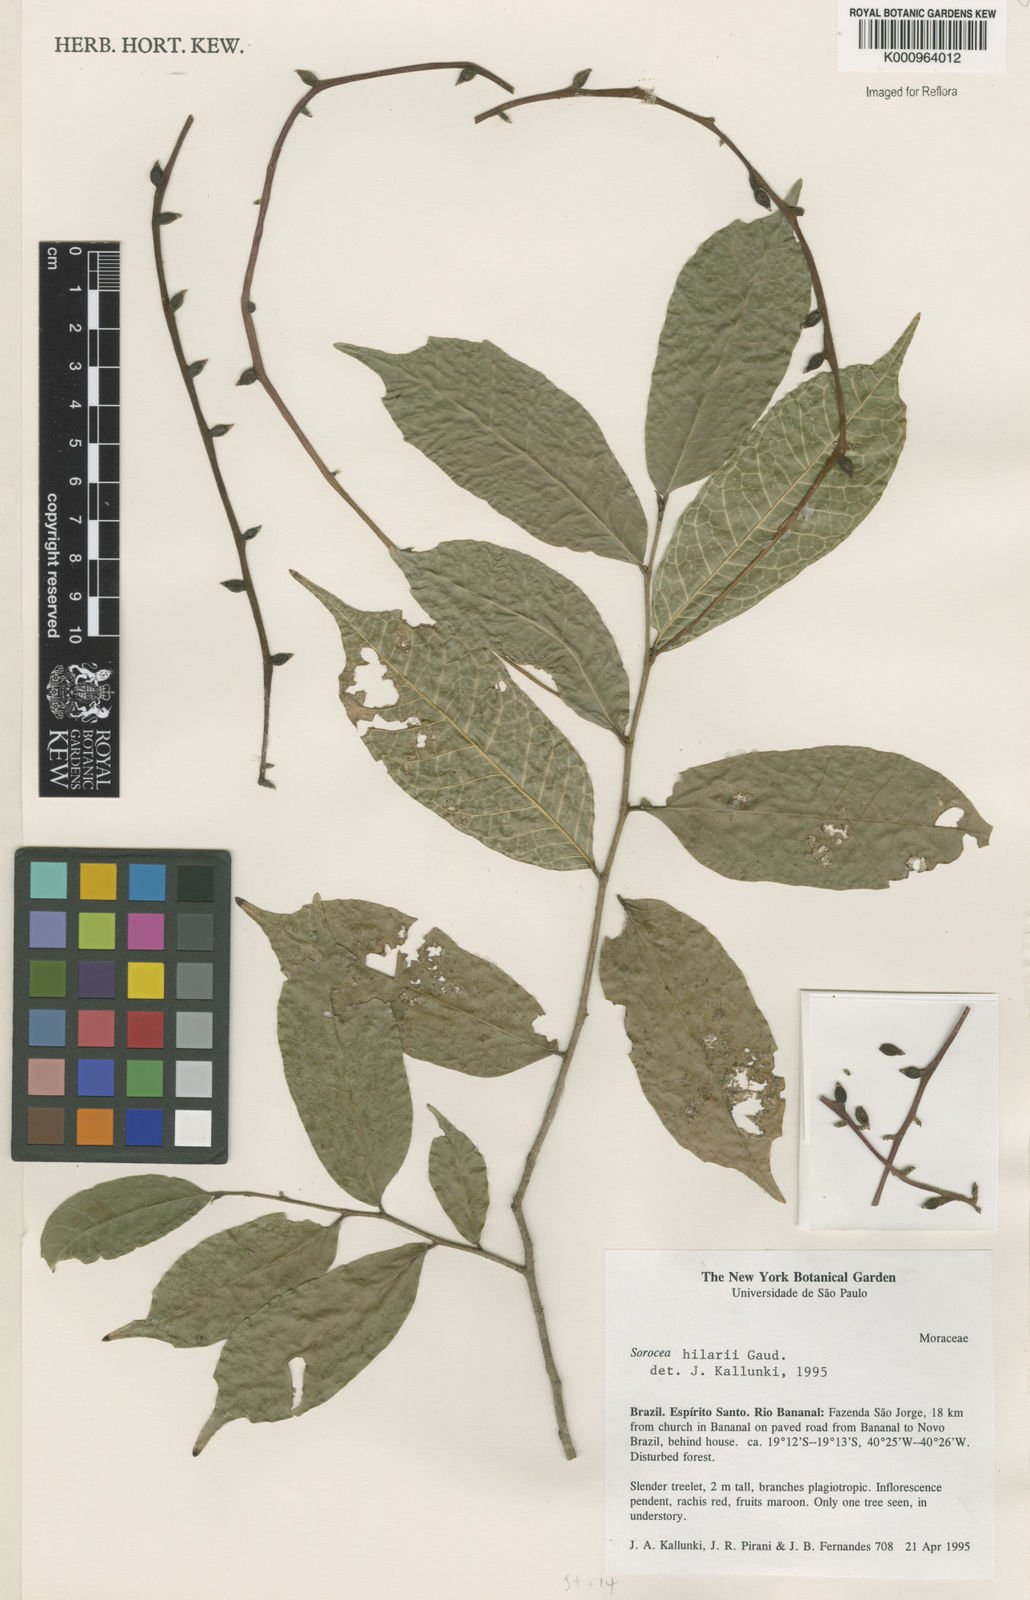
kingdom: Plantae
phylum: Tracheophyta
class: Magnoliopsida
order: Rosales
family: Moraceae
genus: Sorocea
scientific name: Sorocea hilarii
